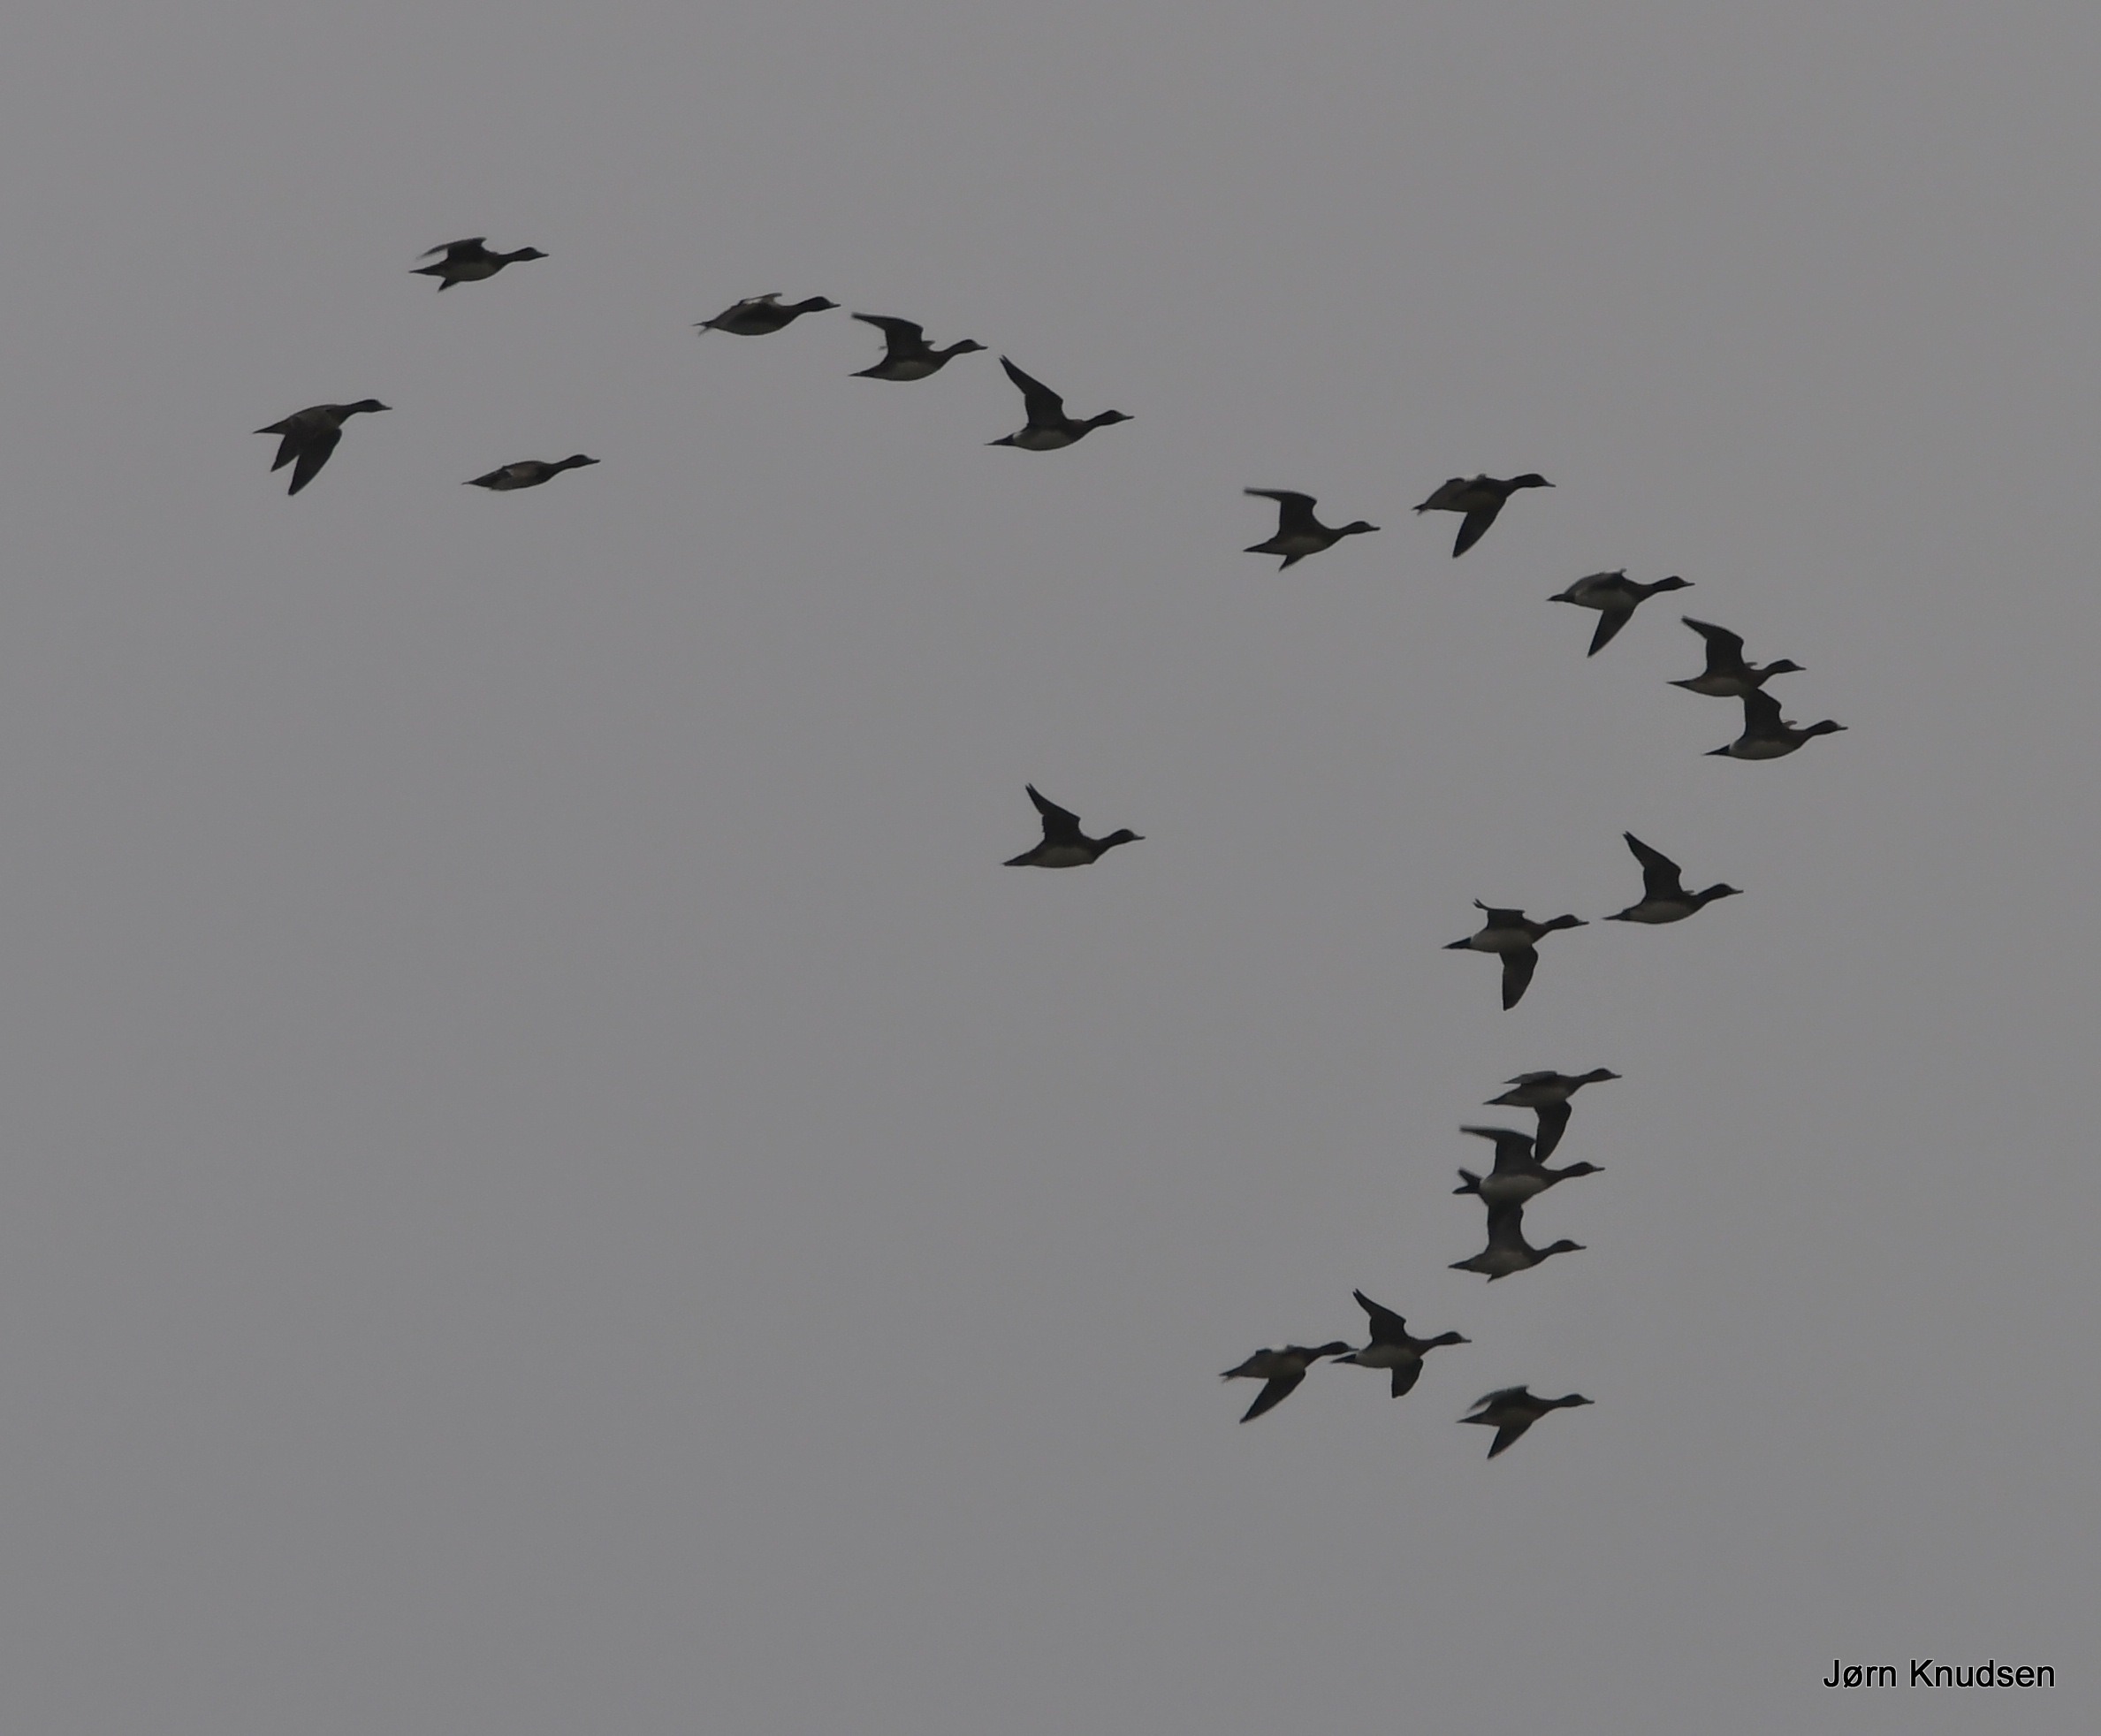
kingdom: Animalia
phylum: Chordata
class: Aves
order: Anseriformes
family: Anatidae
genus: Mareca
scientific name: Mareca penelope
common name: Pibeand
